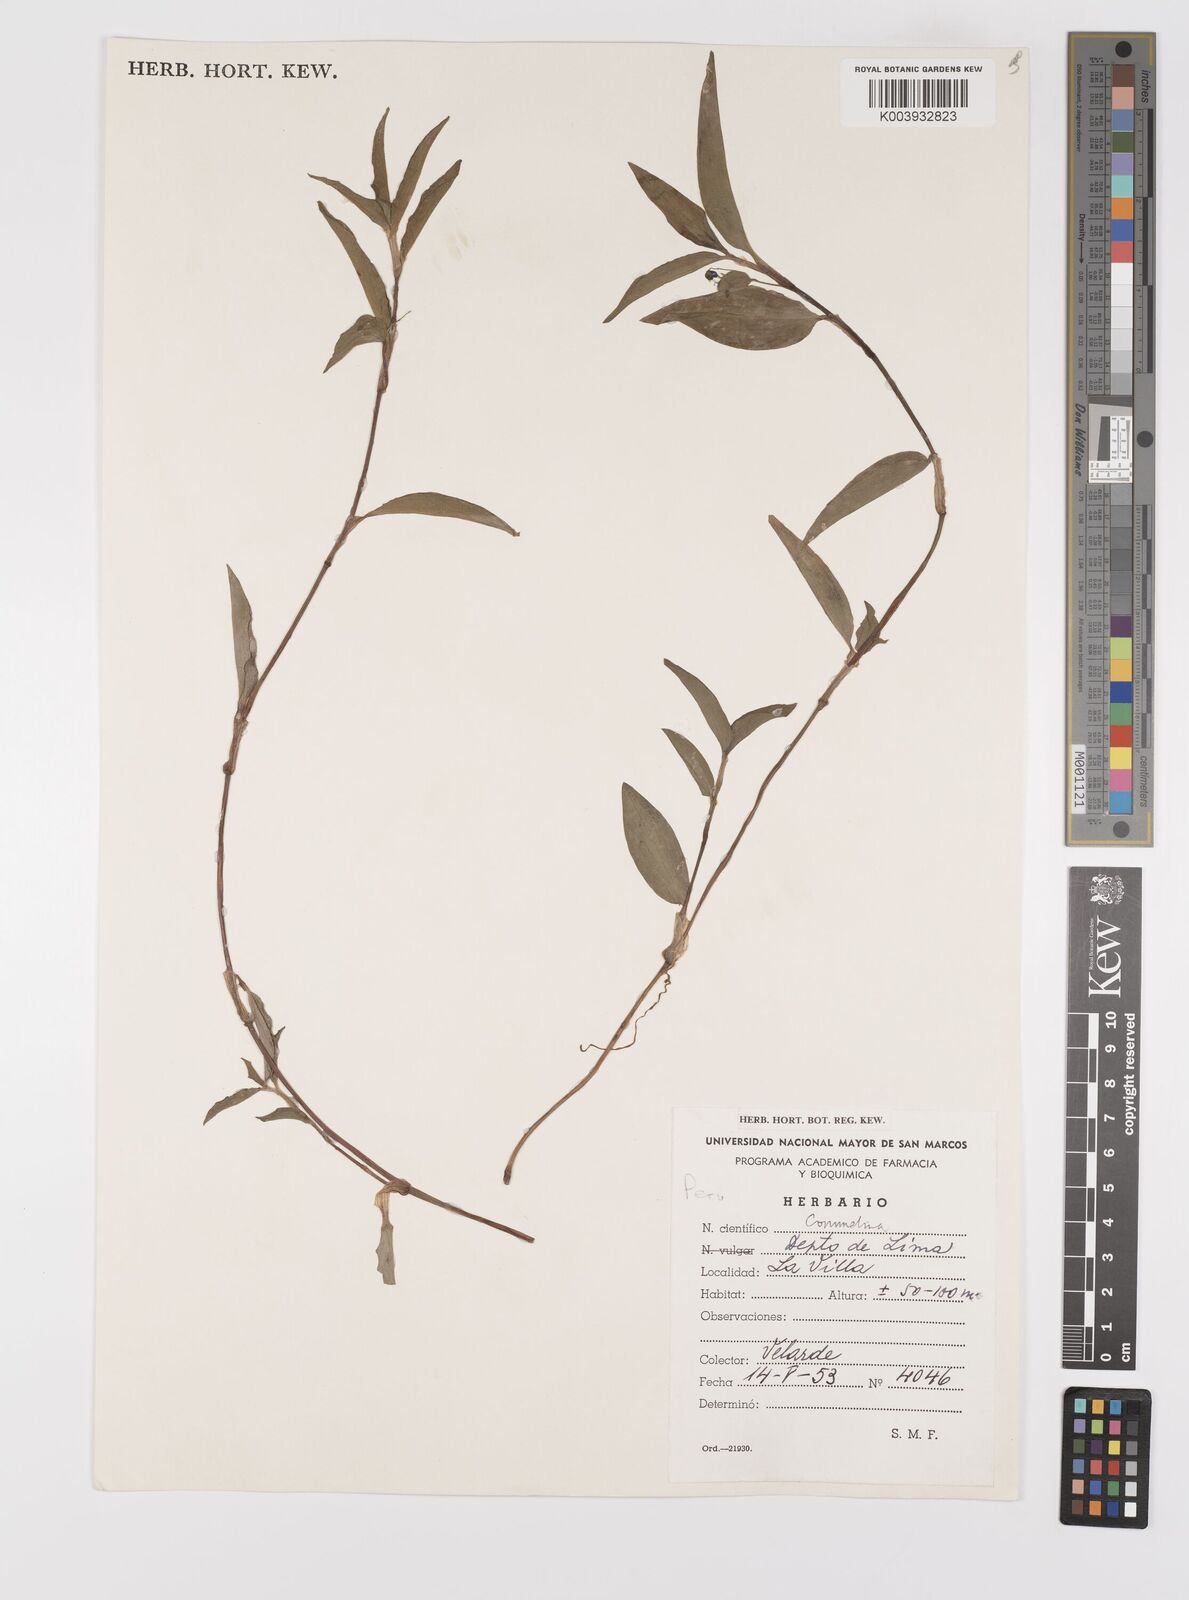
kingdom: Plantae
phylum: Tracheophyta
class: Liliopsida
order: Commelinales
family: Commelinaceae
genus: Commelina
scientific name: Commelina
